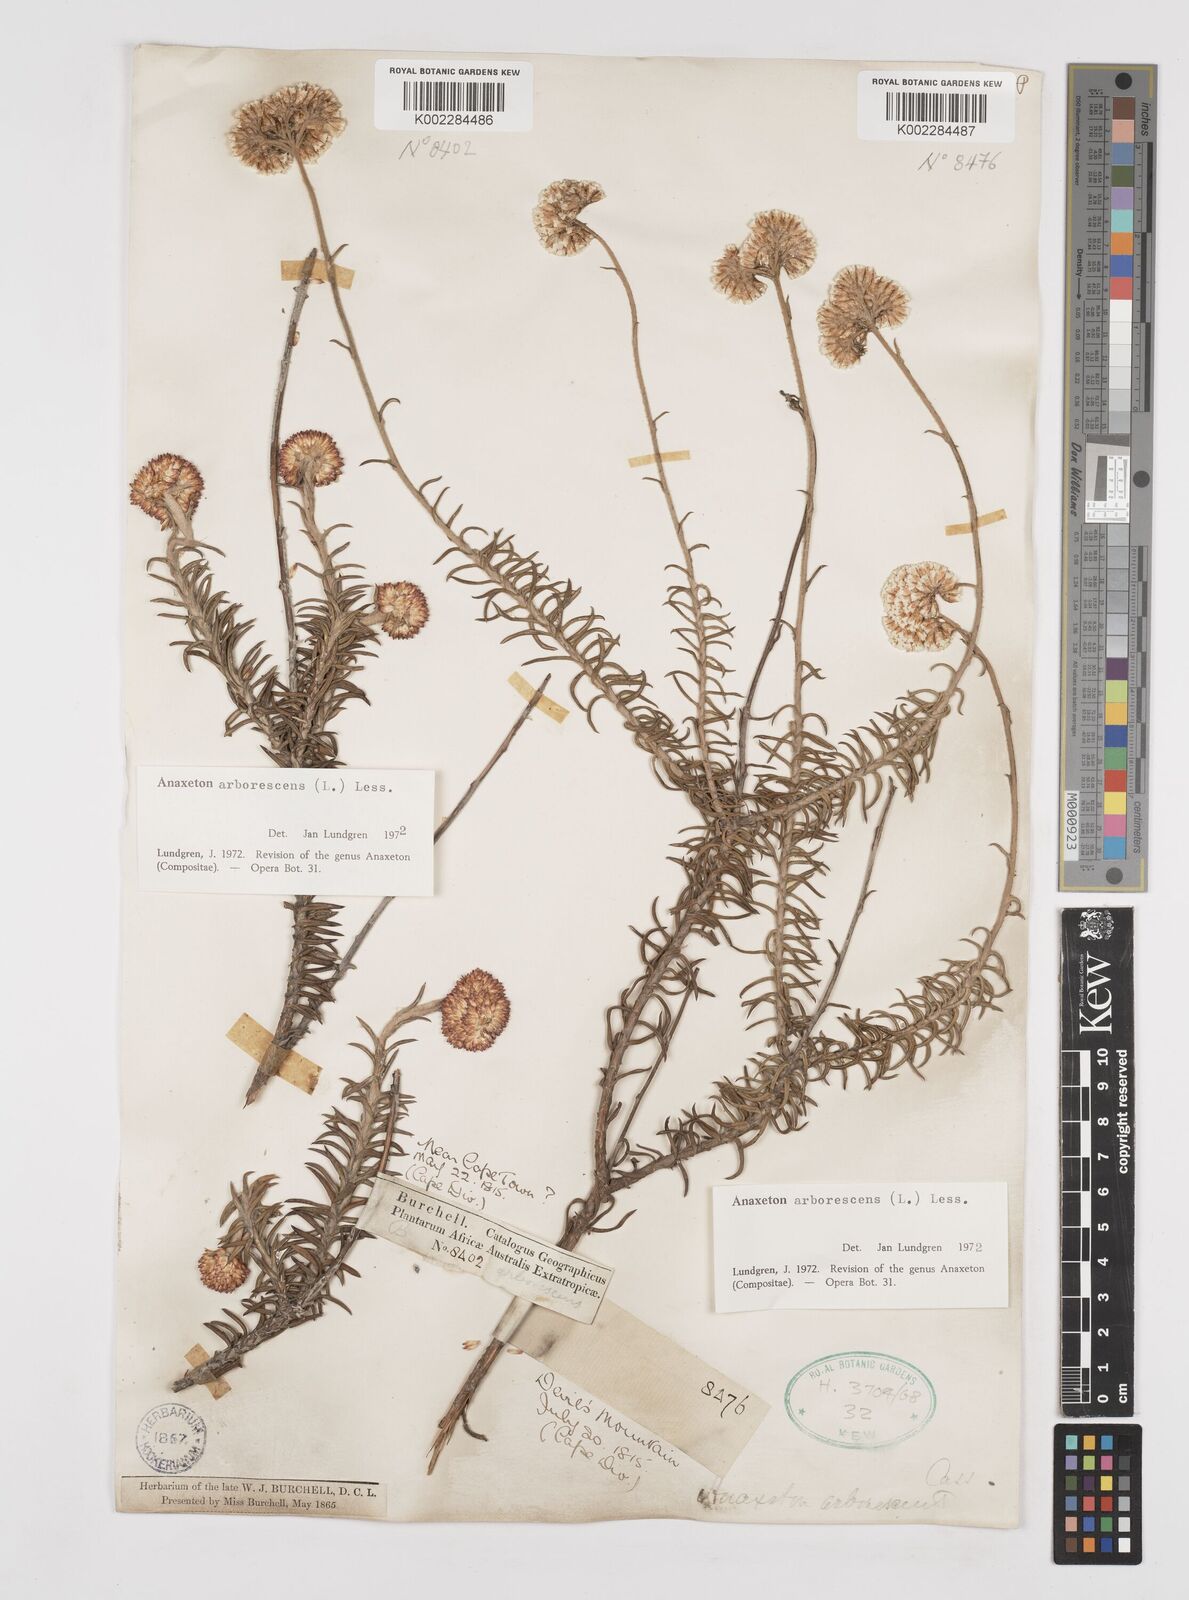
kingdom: Plantae
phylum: Tracheophyta
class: Magnoliopsida
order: Asterales
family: Asteraceae
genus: Anaxeton
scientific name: Anaxeton arborescens
